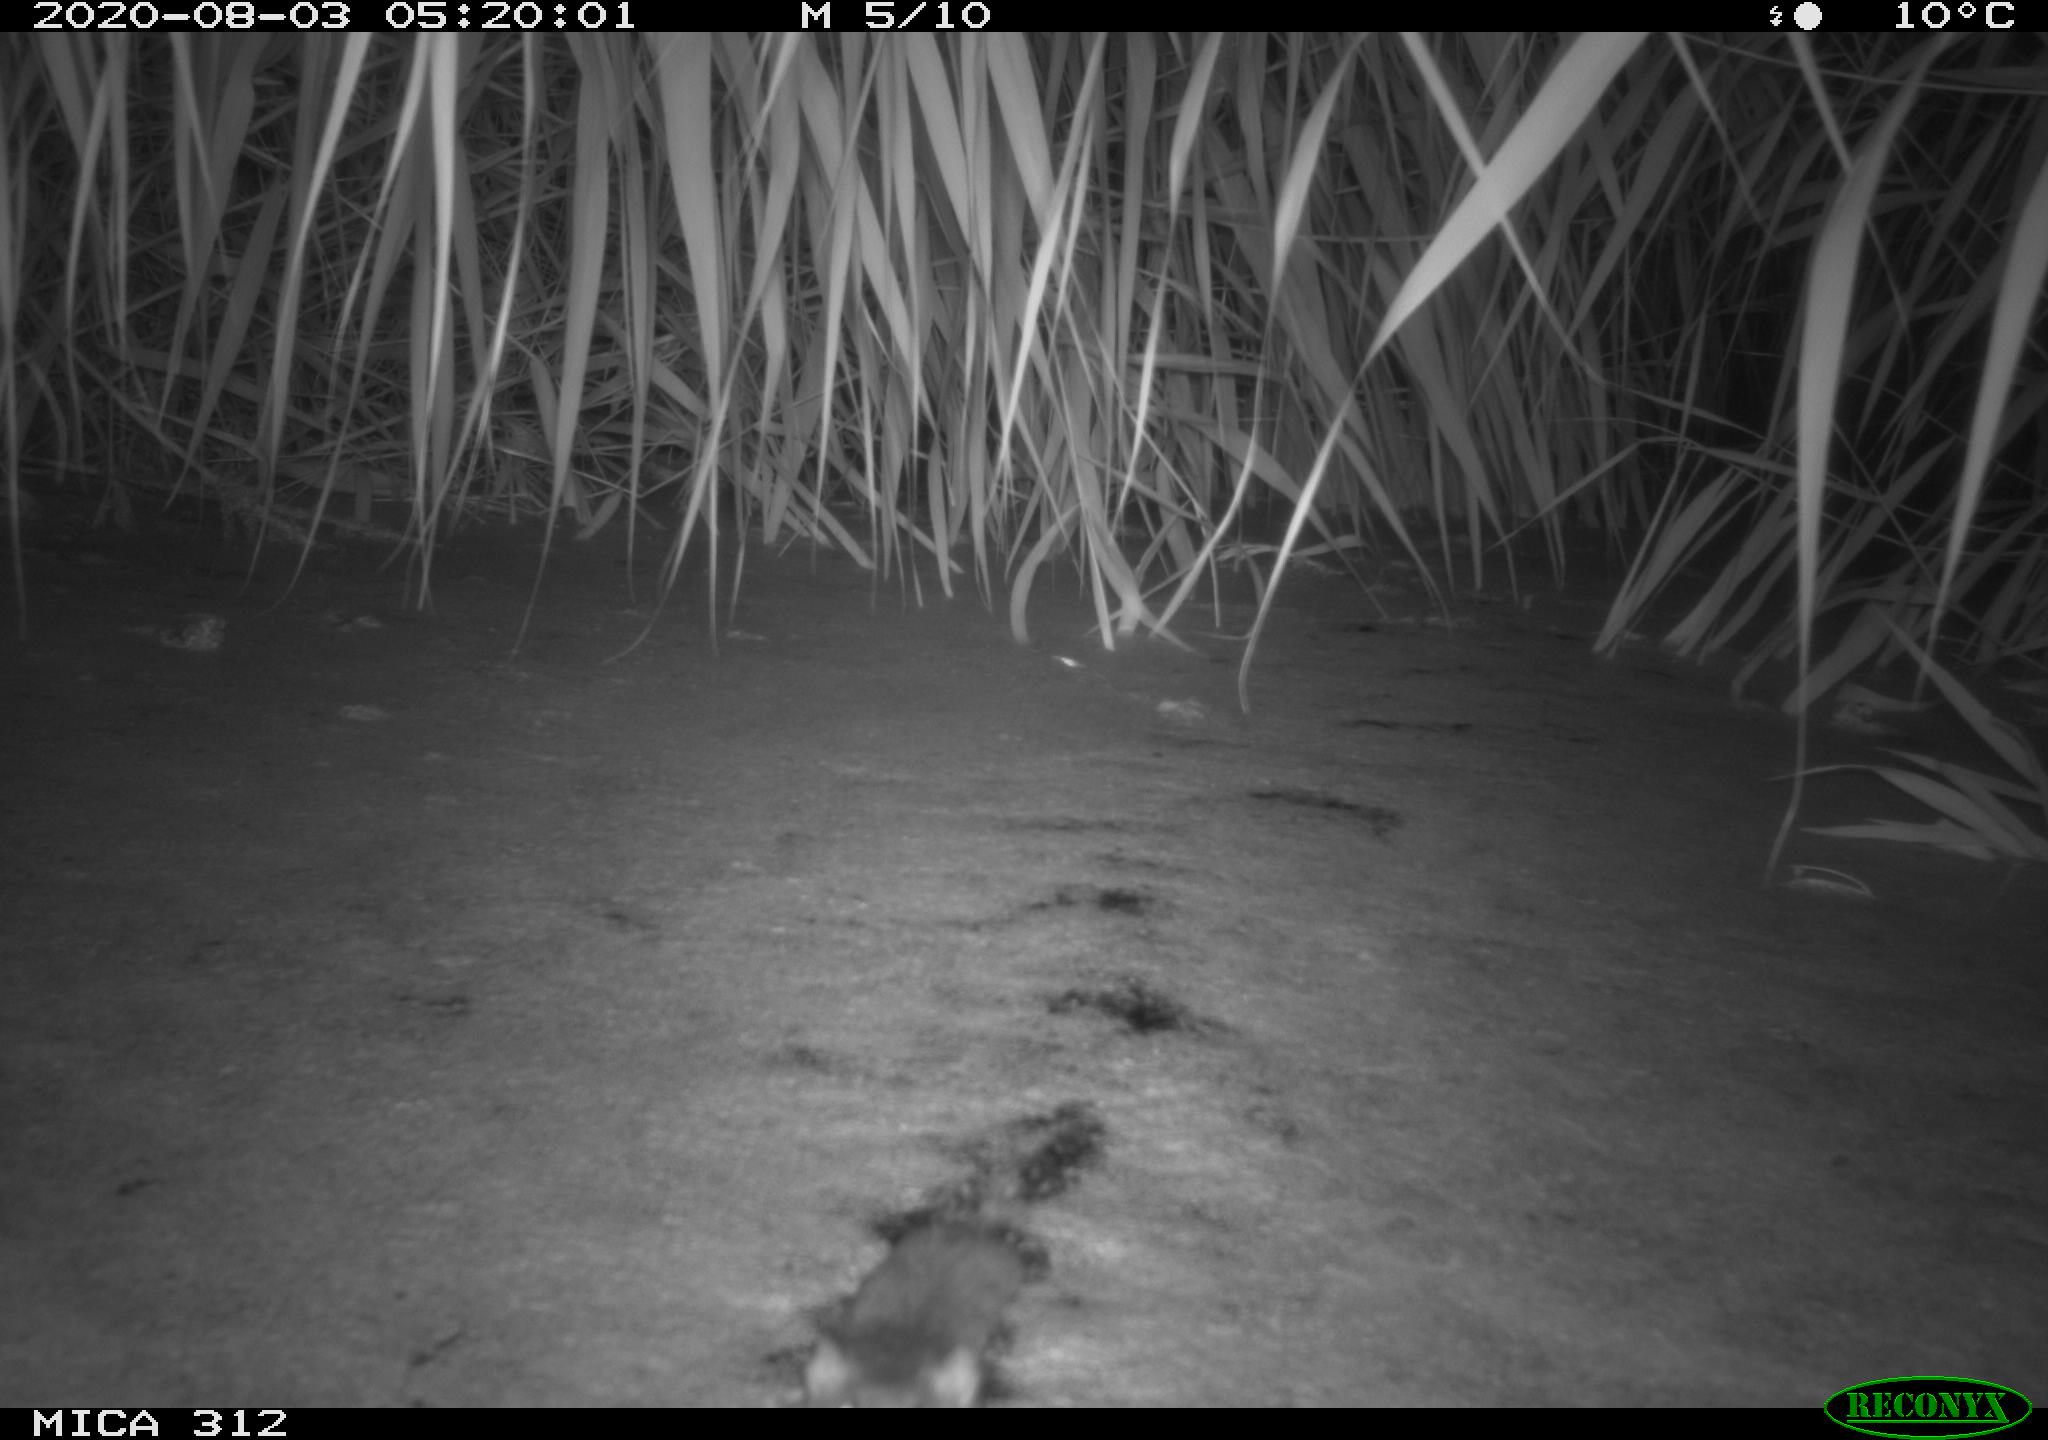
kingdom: Animalia
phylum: Chordata
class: Mammalia
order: Rodentia
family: Muridae
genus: Rattus
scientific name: Rattus norvegicus
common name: Brown rat
